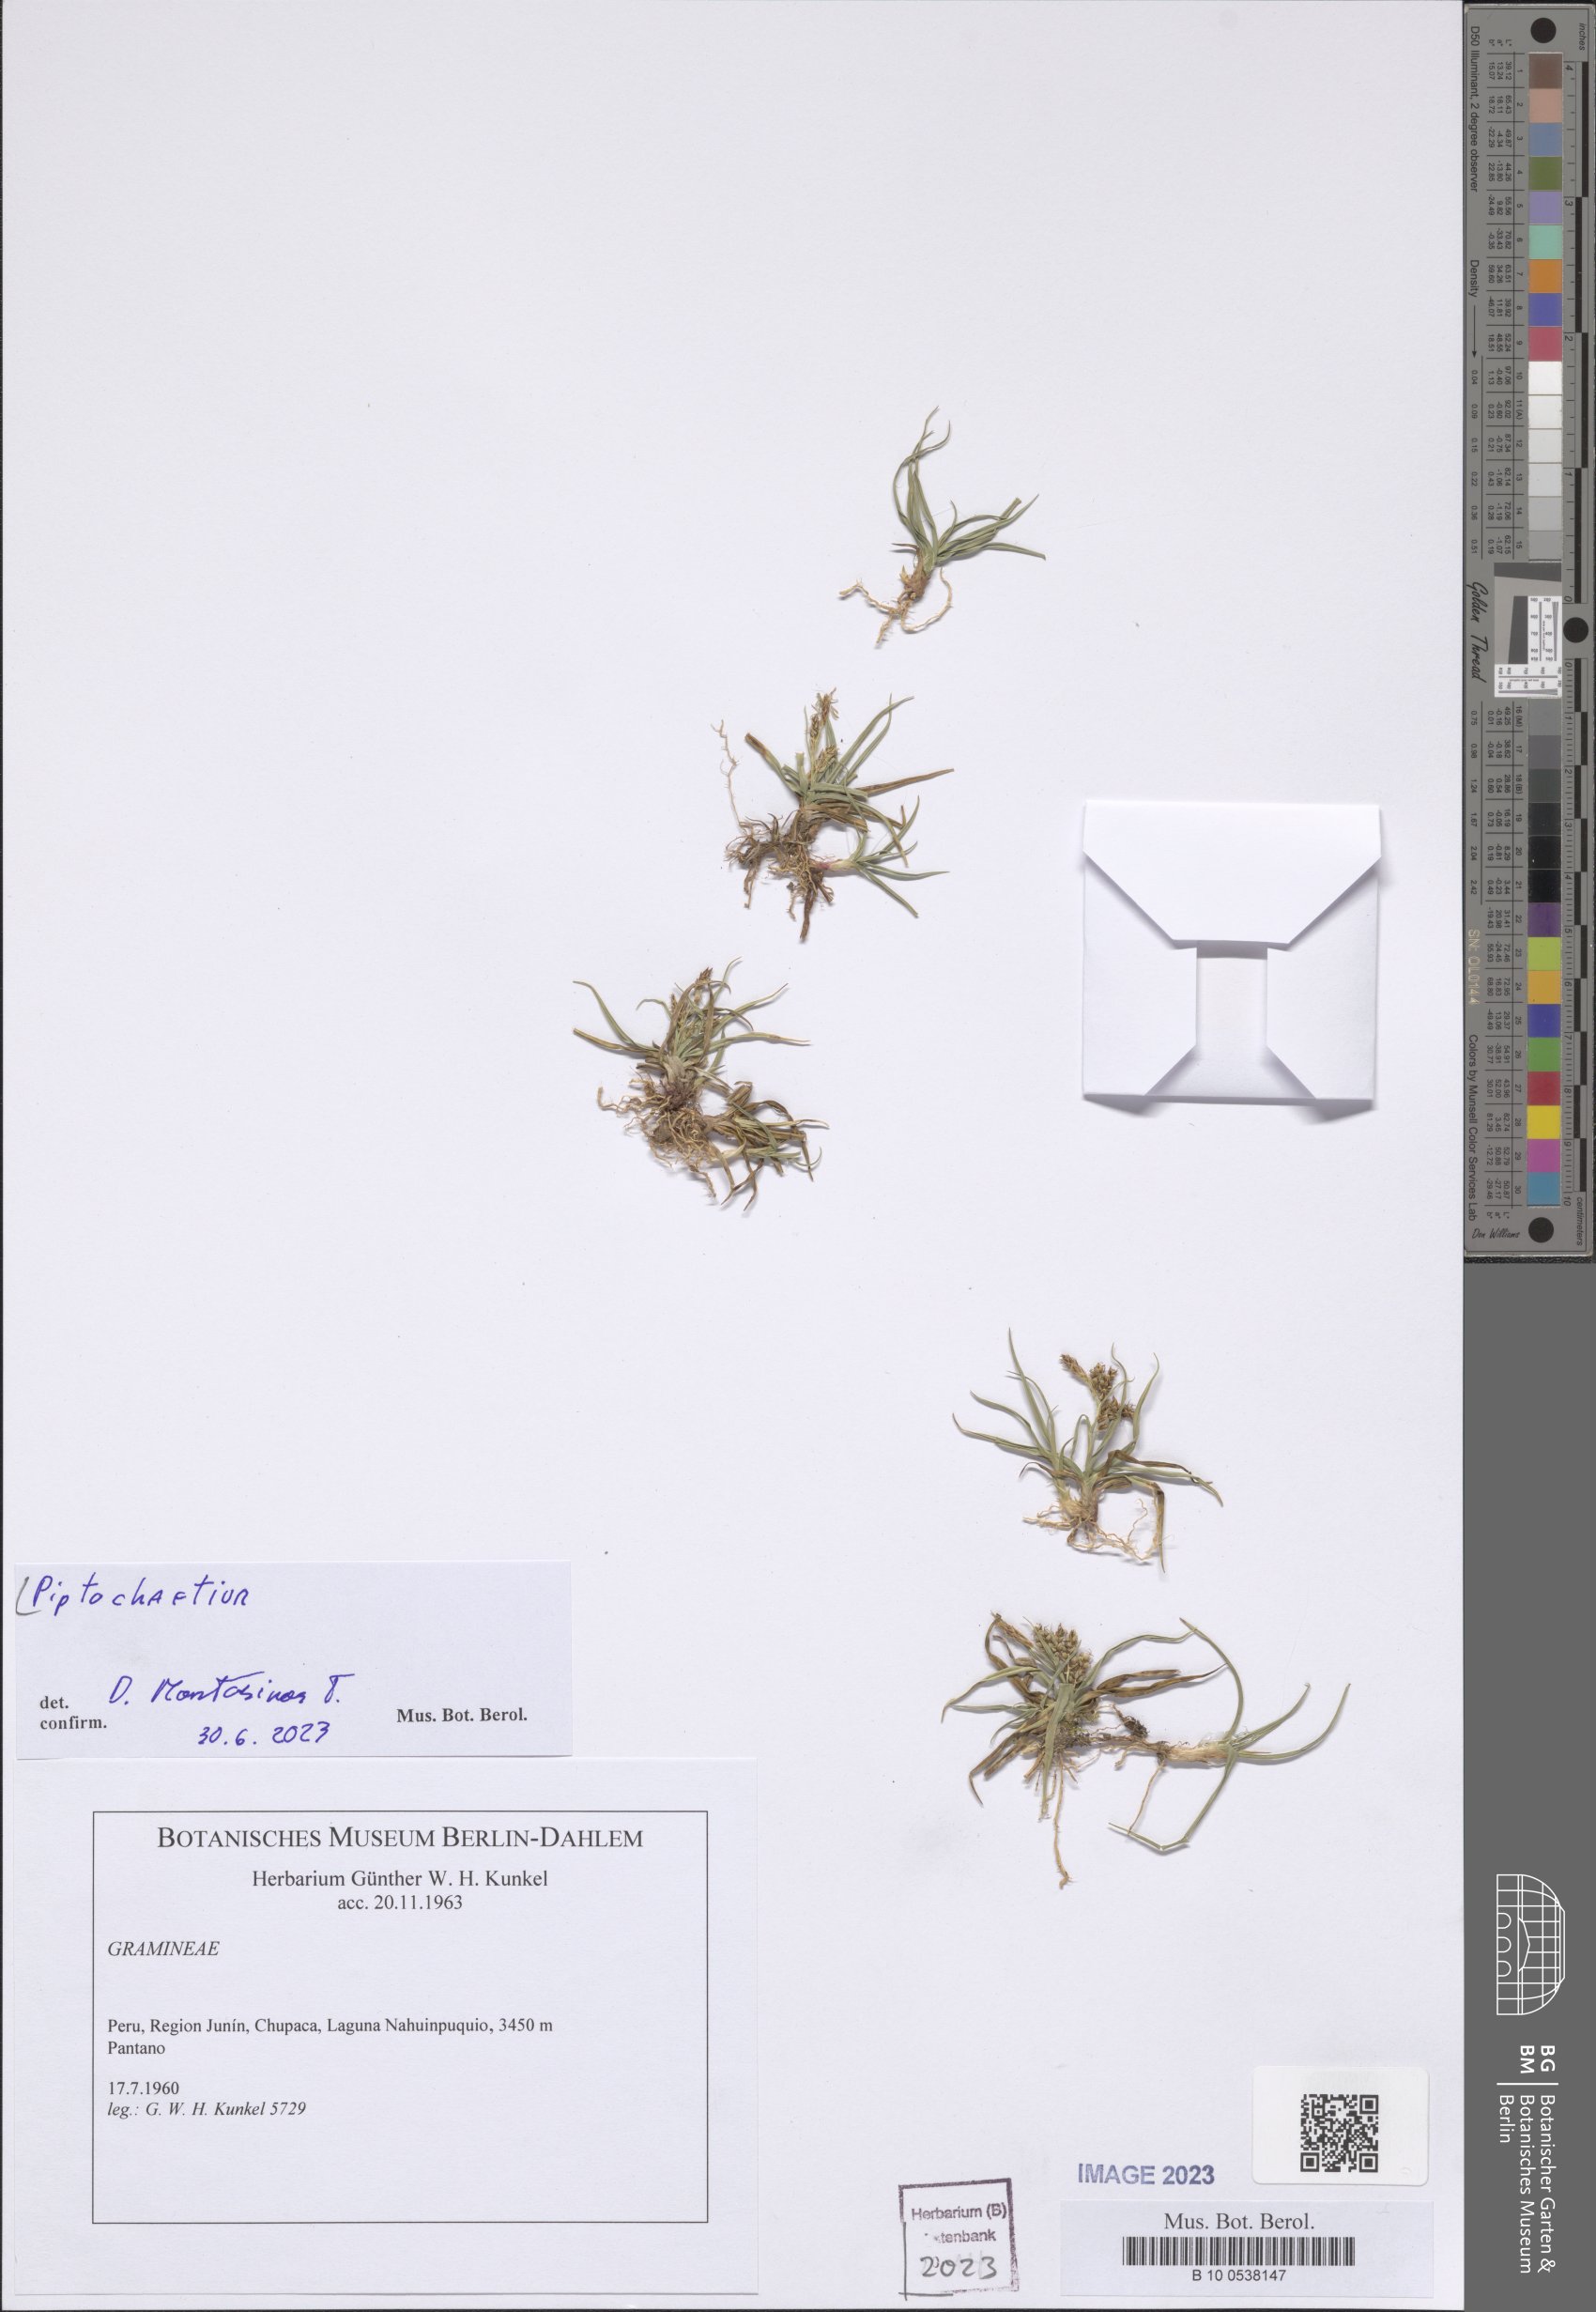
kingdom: Plantae
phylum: Tracheophyta
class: Liliopsida
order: Poales
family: Poaceae
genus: Piptochaetium
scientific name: Piptochaetium
